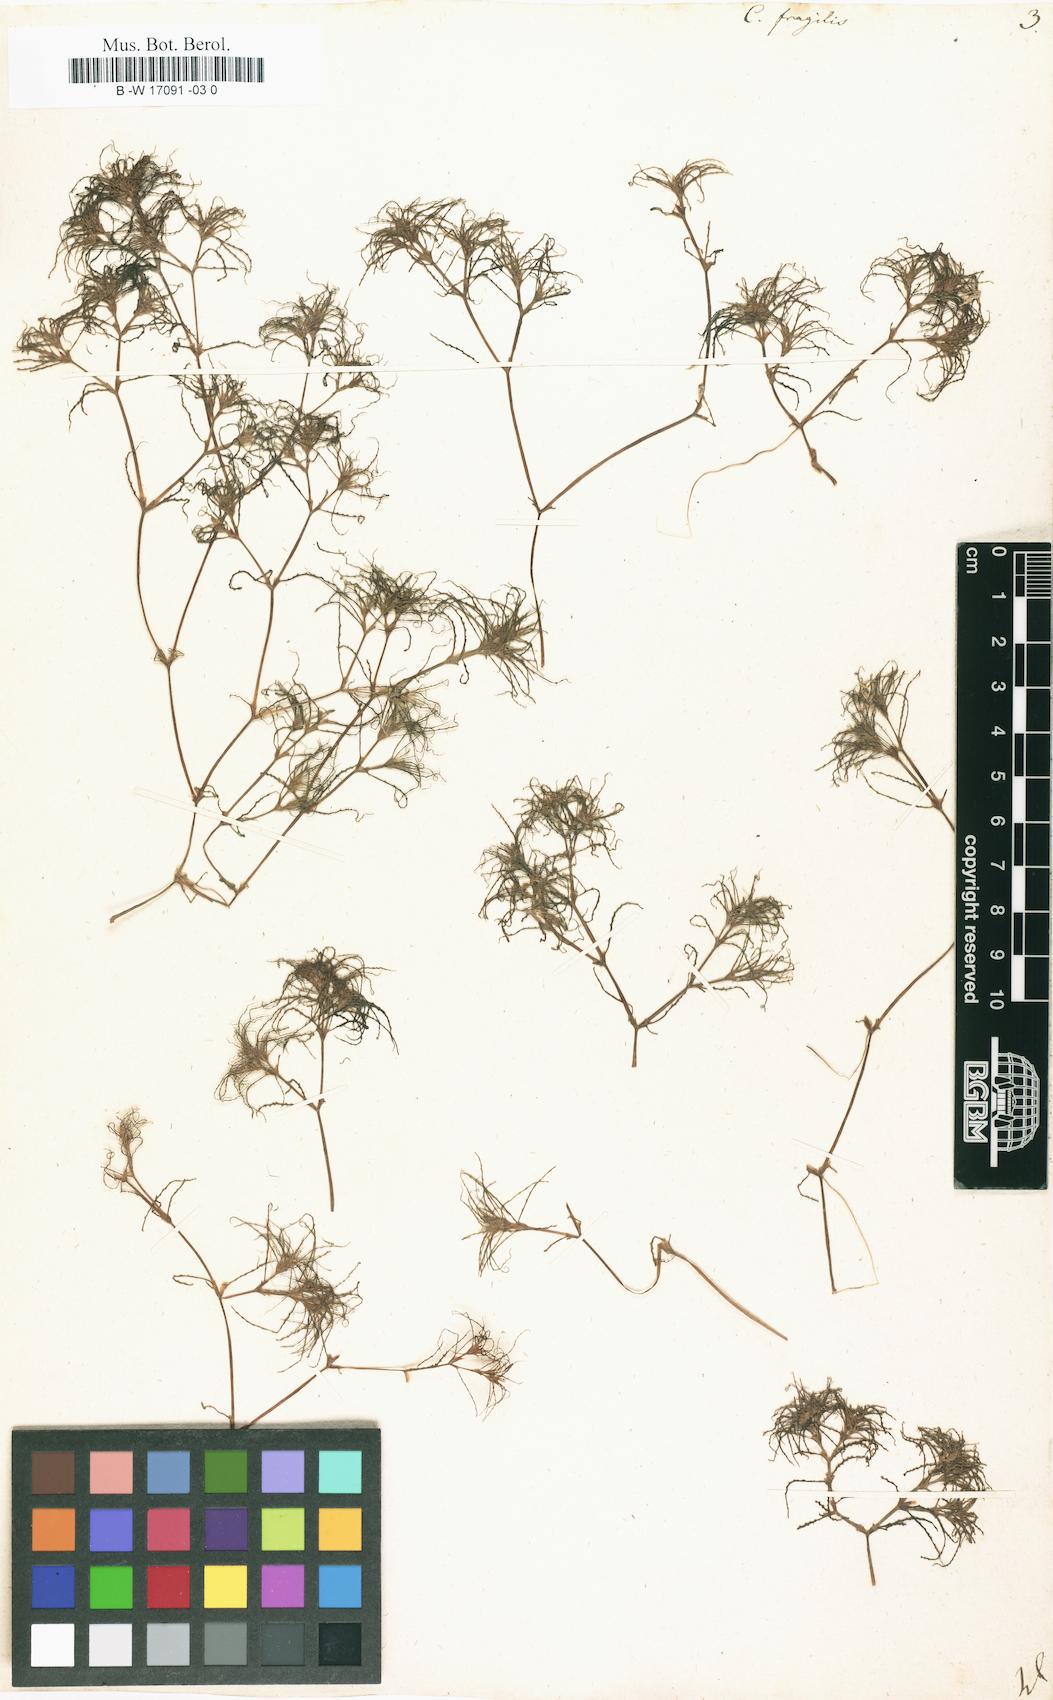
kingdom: Plantae
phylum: Tracheophyta
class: Liliopsida
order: Alismatales
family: Hydrocharitaceae
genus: Najas
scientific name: Najas minor
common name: Brittle naiad
